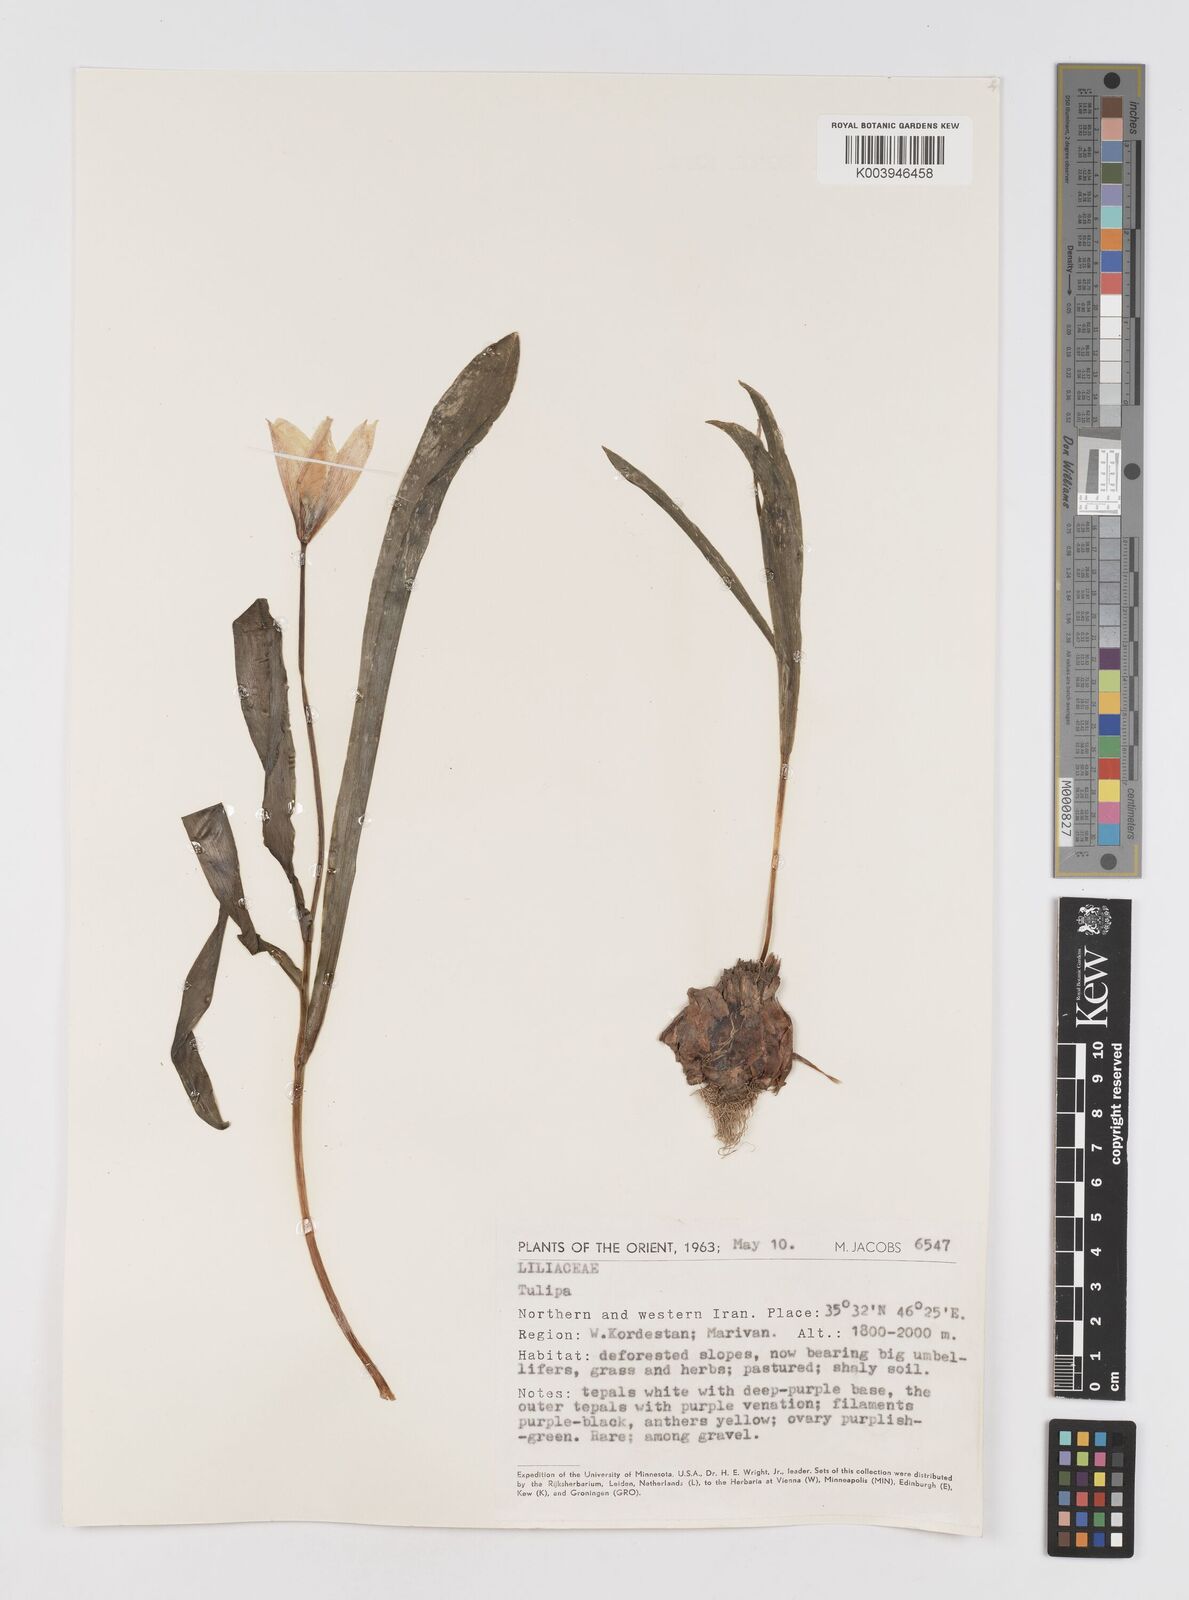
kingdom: Plantae
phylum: Tracheophyta
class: Liliopsida
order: Liliales
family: Liliaceae
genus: Tulipa
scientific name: Tulipa
